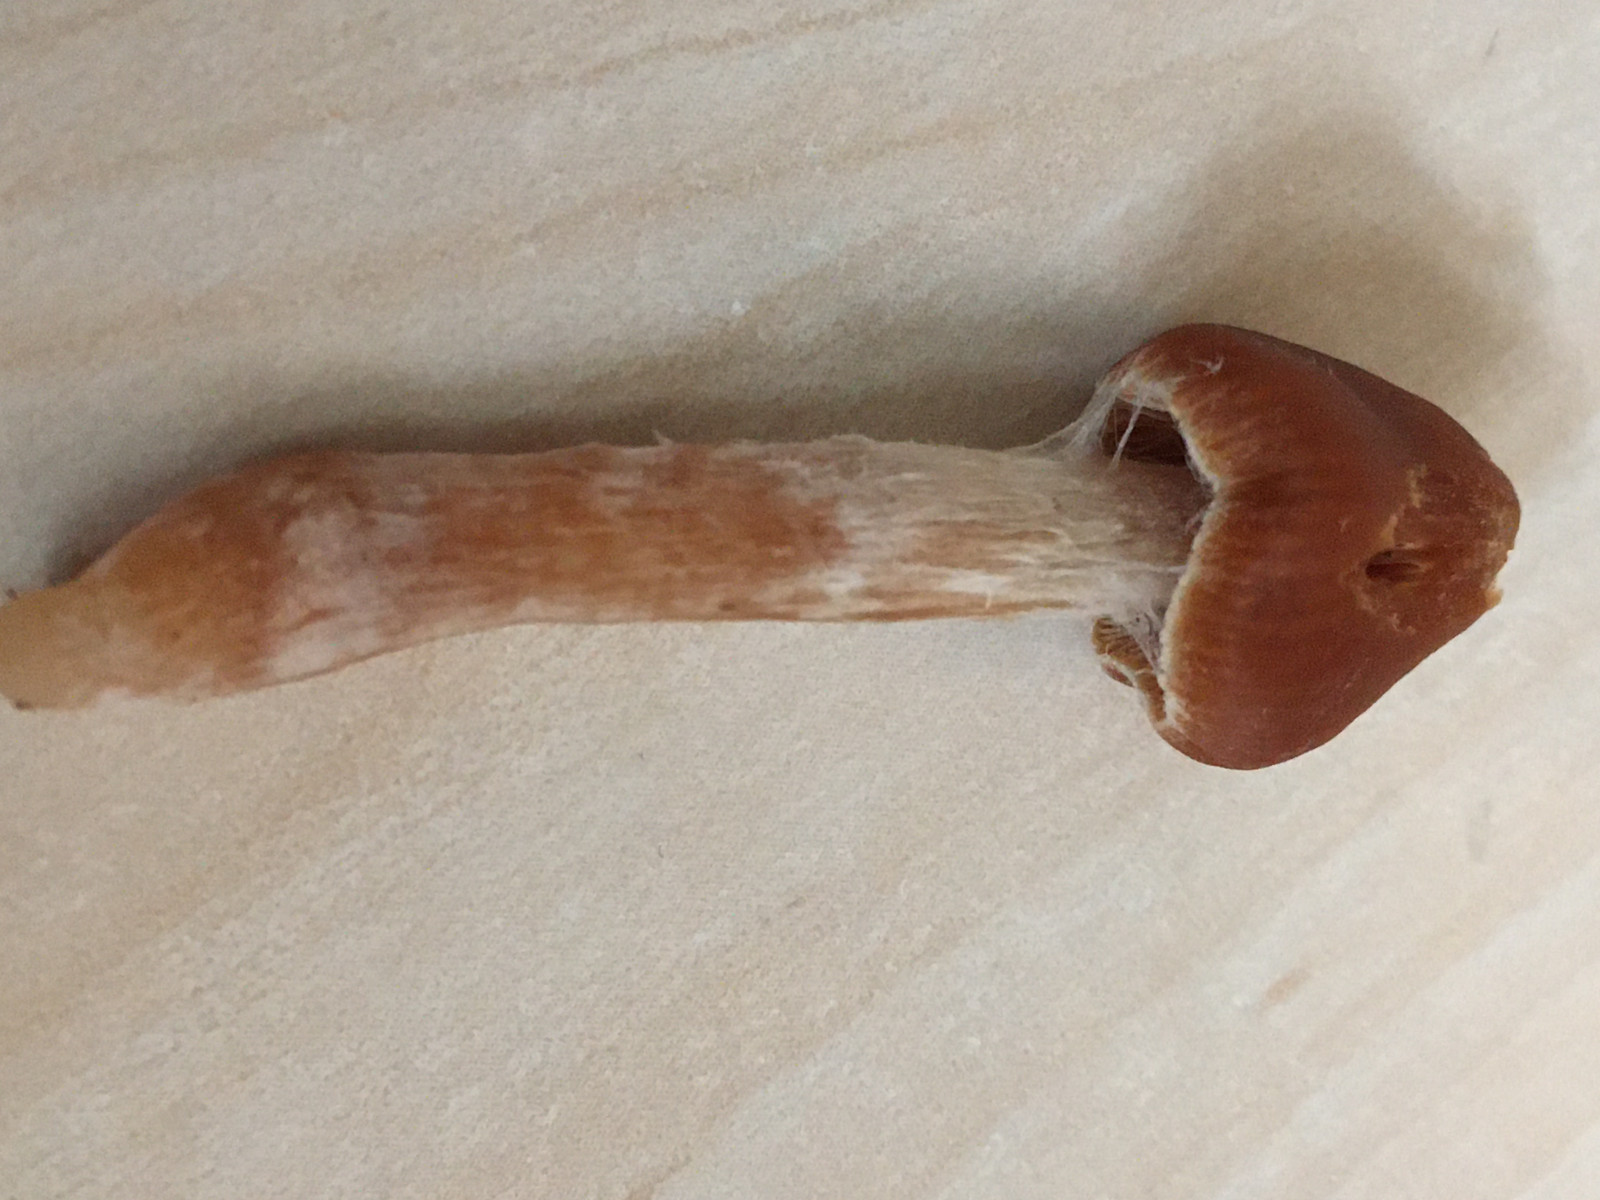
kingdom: Fungi
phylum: Basidiomycota
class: Agaricomycetes
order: Agaricales
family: Cortinariaceae
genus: Cortinarius
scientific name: Cortinarius
